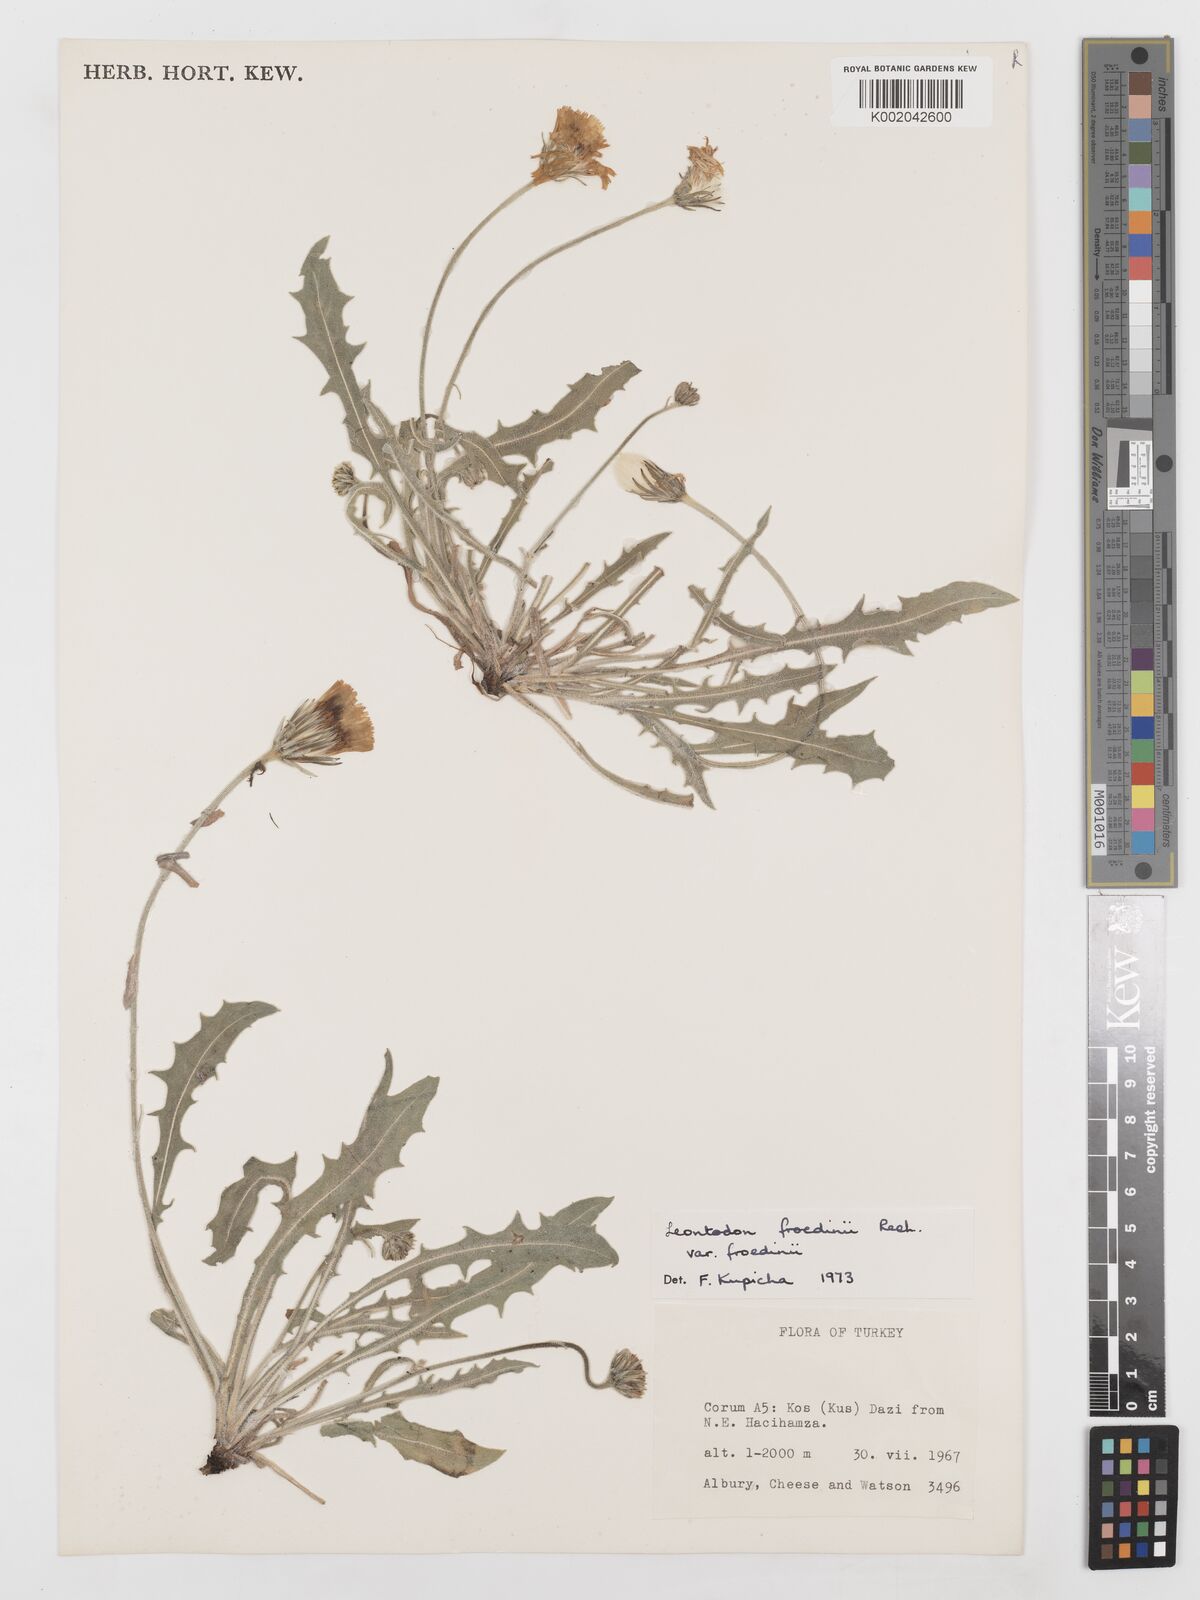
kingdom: Plantae
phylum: Tracheophyta
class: Magnoliopsida
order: Asterales
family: Asteraceae
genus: Leontodon
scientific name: Leontodon
